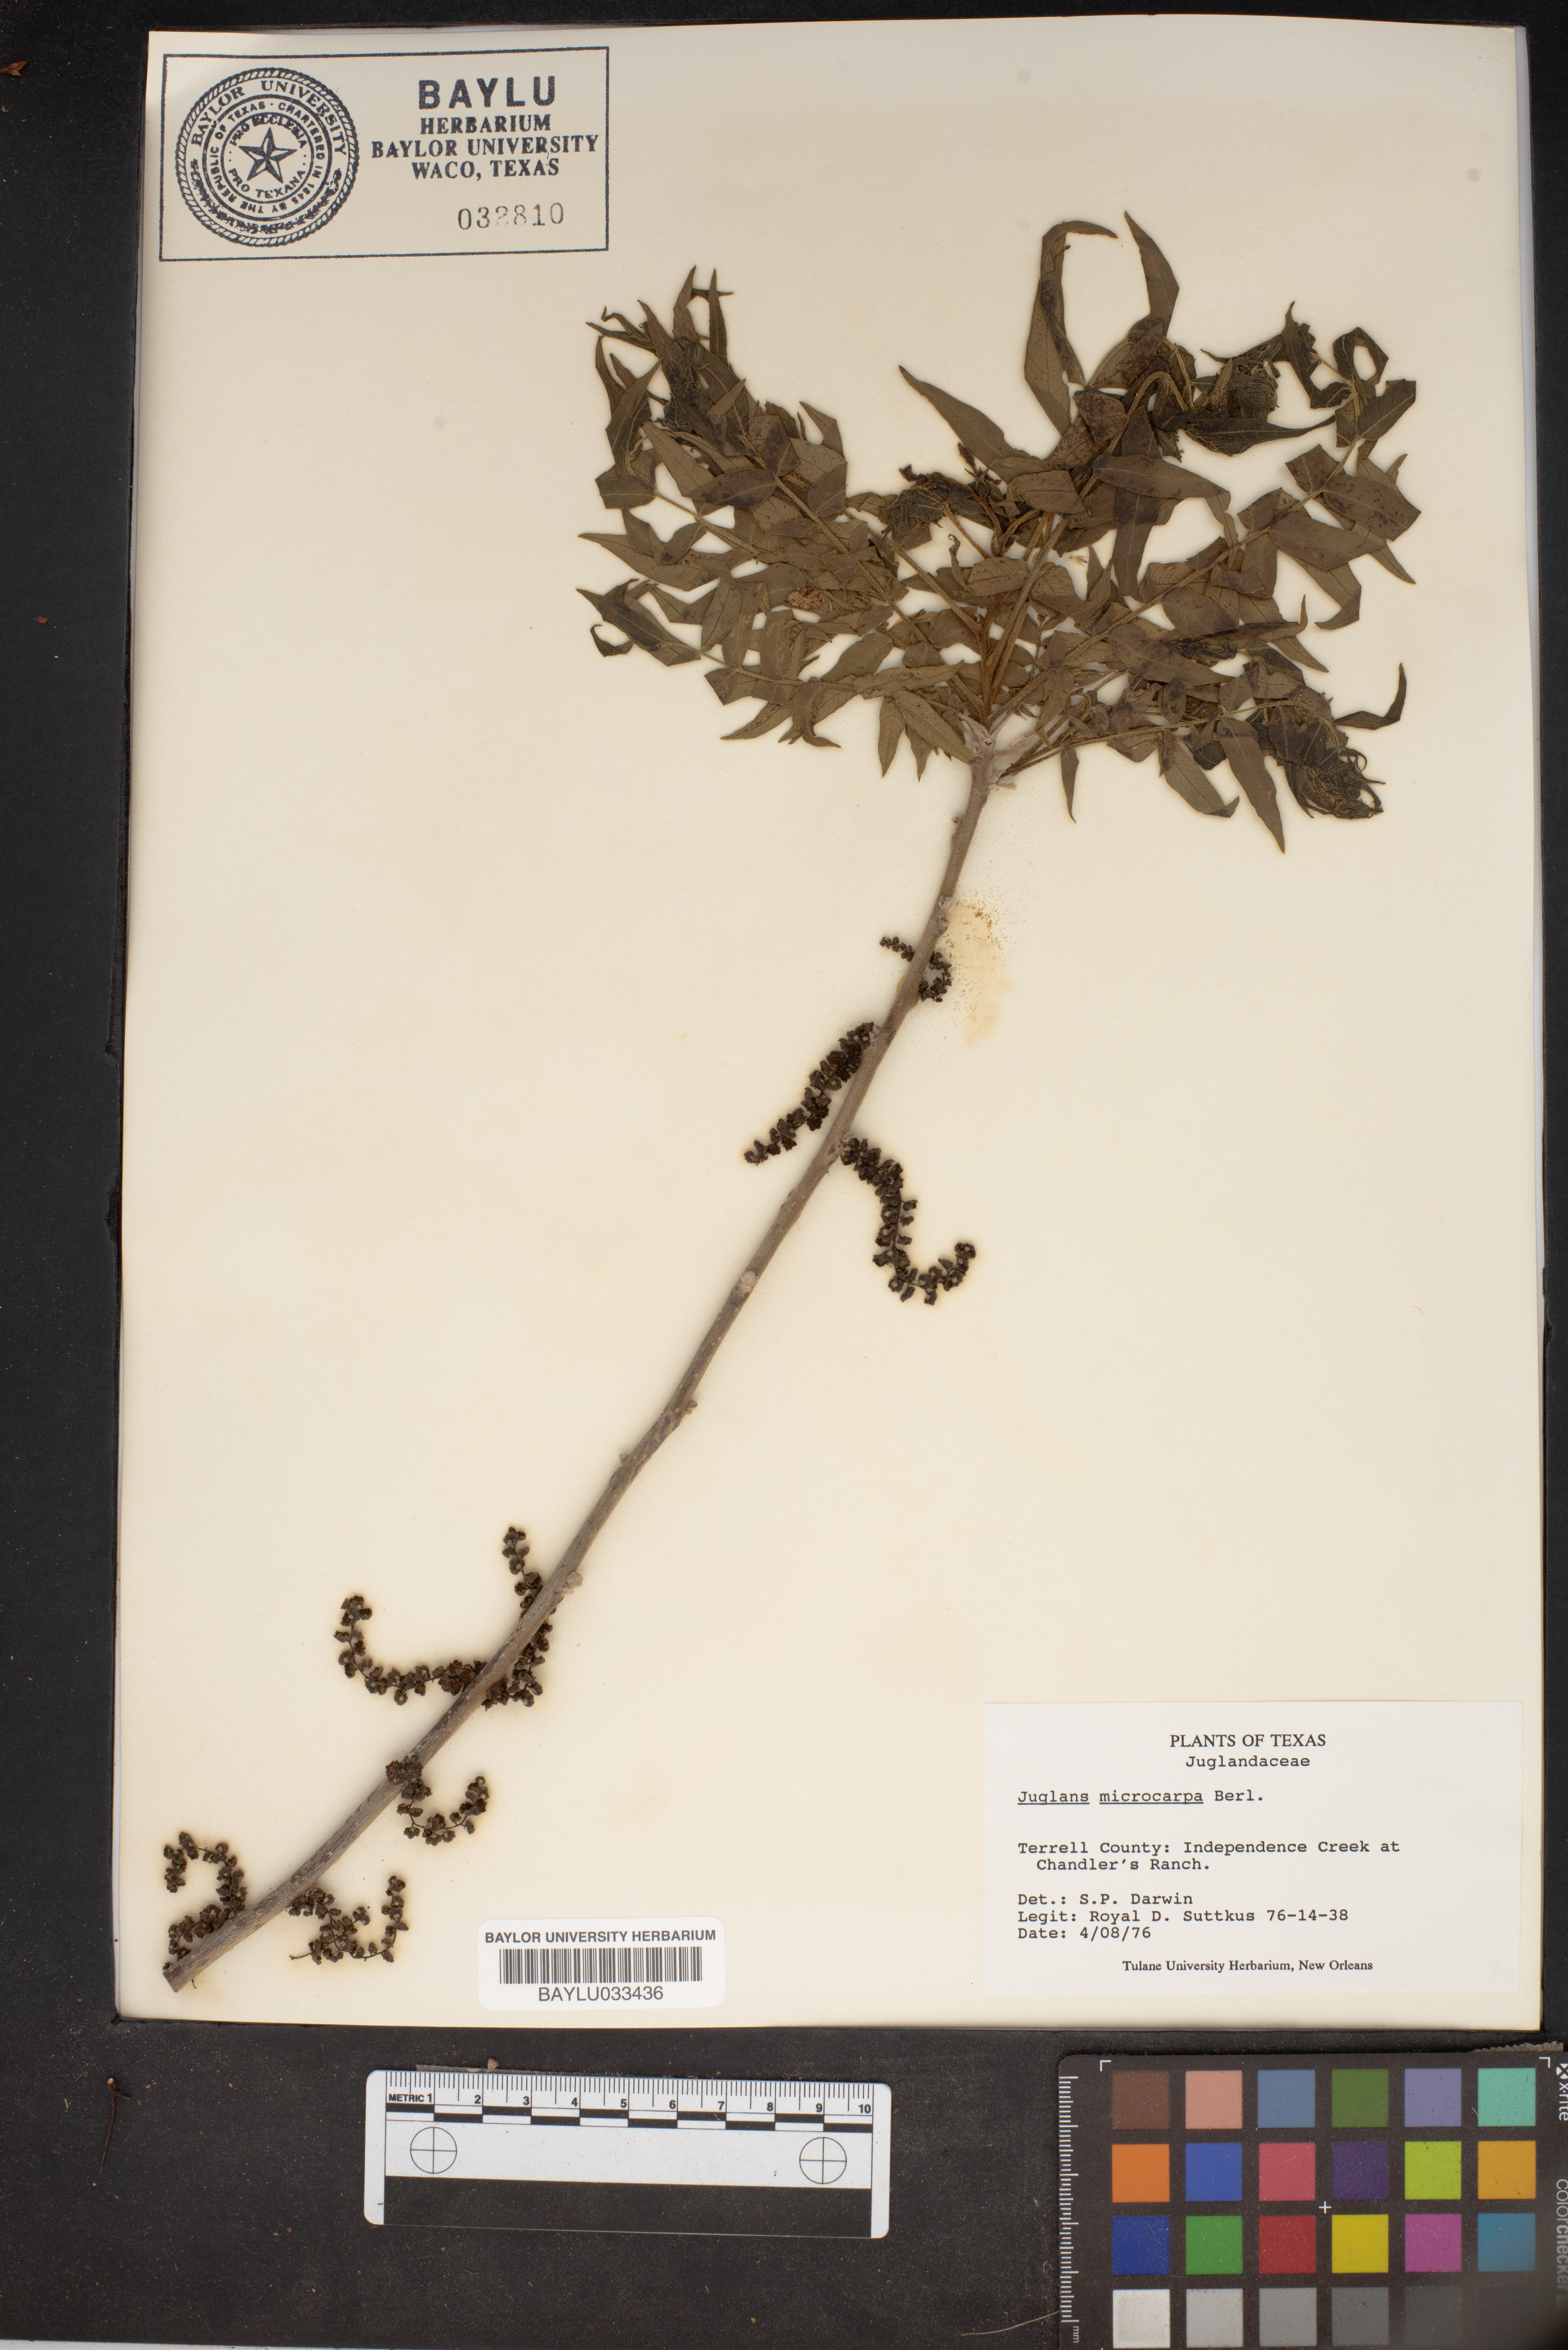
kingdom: Plantae
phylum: Tracheophyta
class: Magnoliopsida
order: Fagales
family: Juglandaceae
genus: Juglans
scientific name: Juglans microcarpa
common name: Texas walnut
